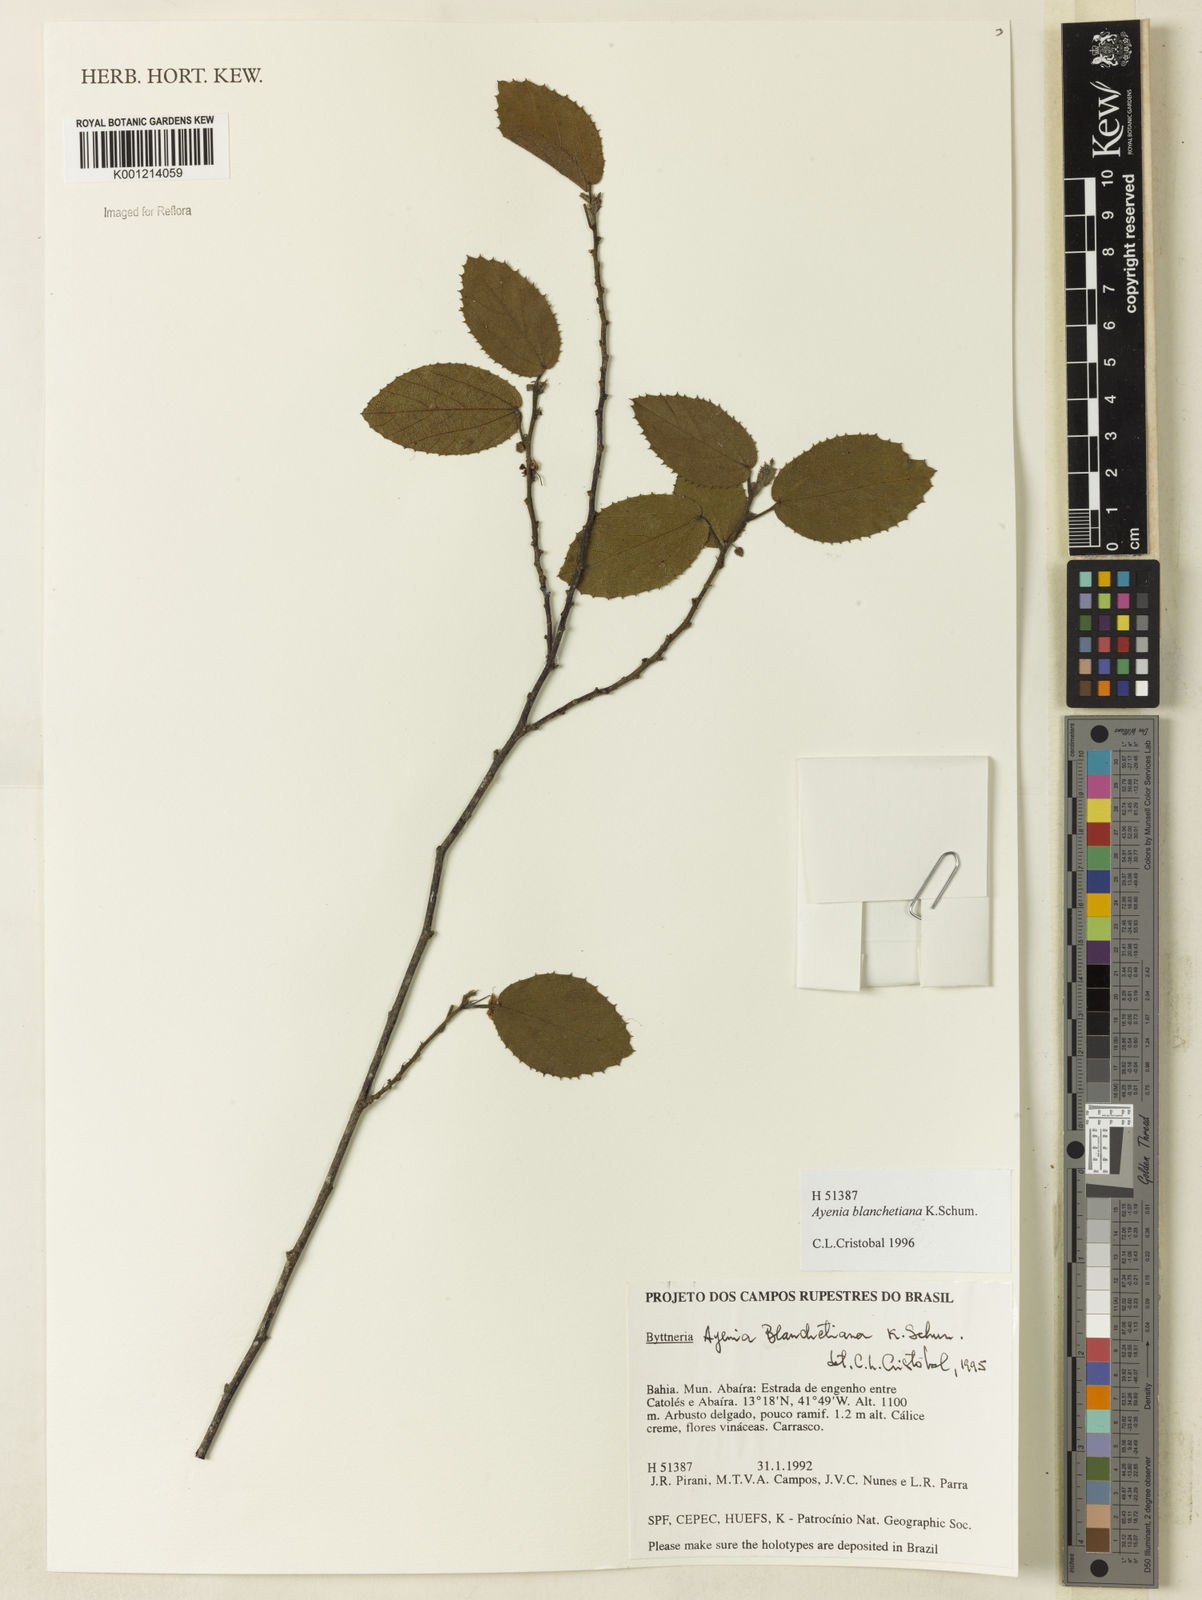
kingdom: Plantae
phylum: Tracheophyta
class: Magnoliopsida
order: Malvales
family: Malvaceae
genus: Ayenia
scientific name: Ayenia blanchetiana
